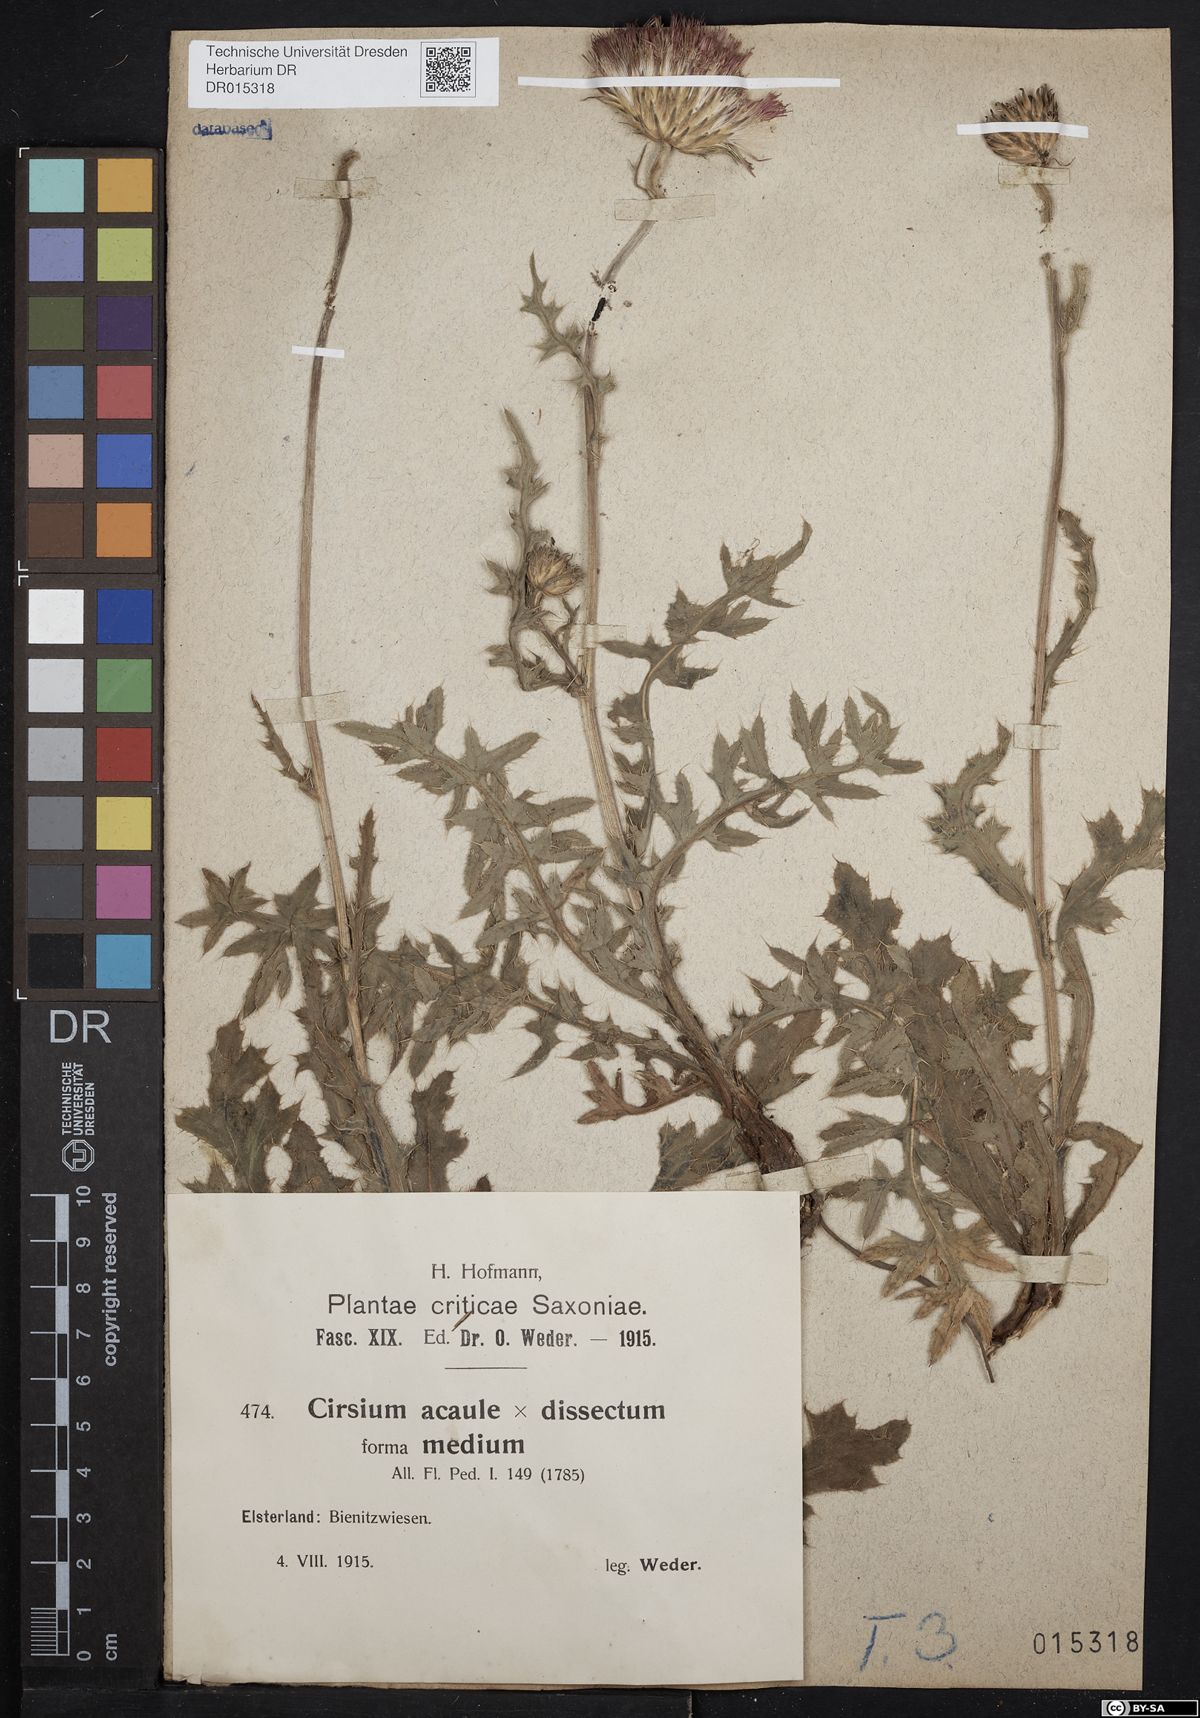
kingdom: Plantae
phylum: Tracheophyta
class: Magnoliopsida
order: Asterales
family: Asteraceae
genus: Cirsium
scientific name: Cirsium medium
